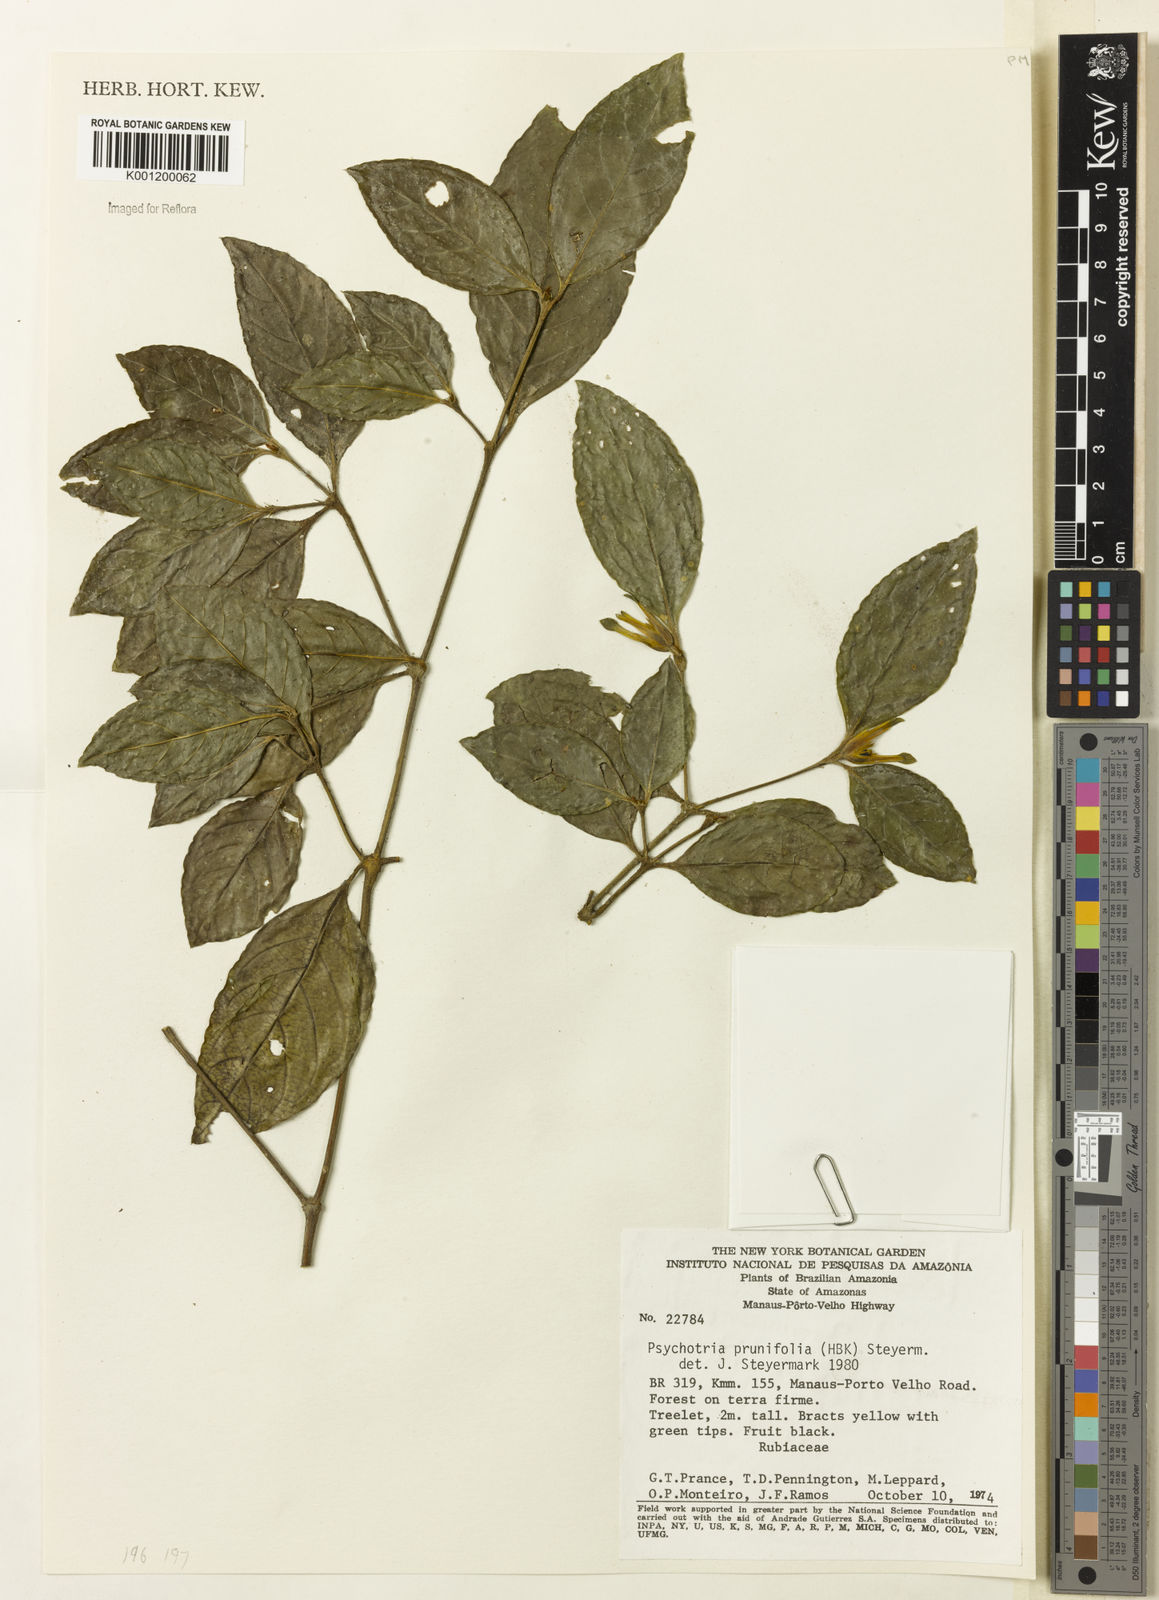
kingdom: Plantae
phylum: Tracheophyta
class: Magnoliopsida
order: Gentianales
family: Rubiaceae
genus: Palicourea
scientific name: Palicourea prunifolia
